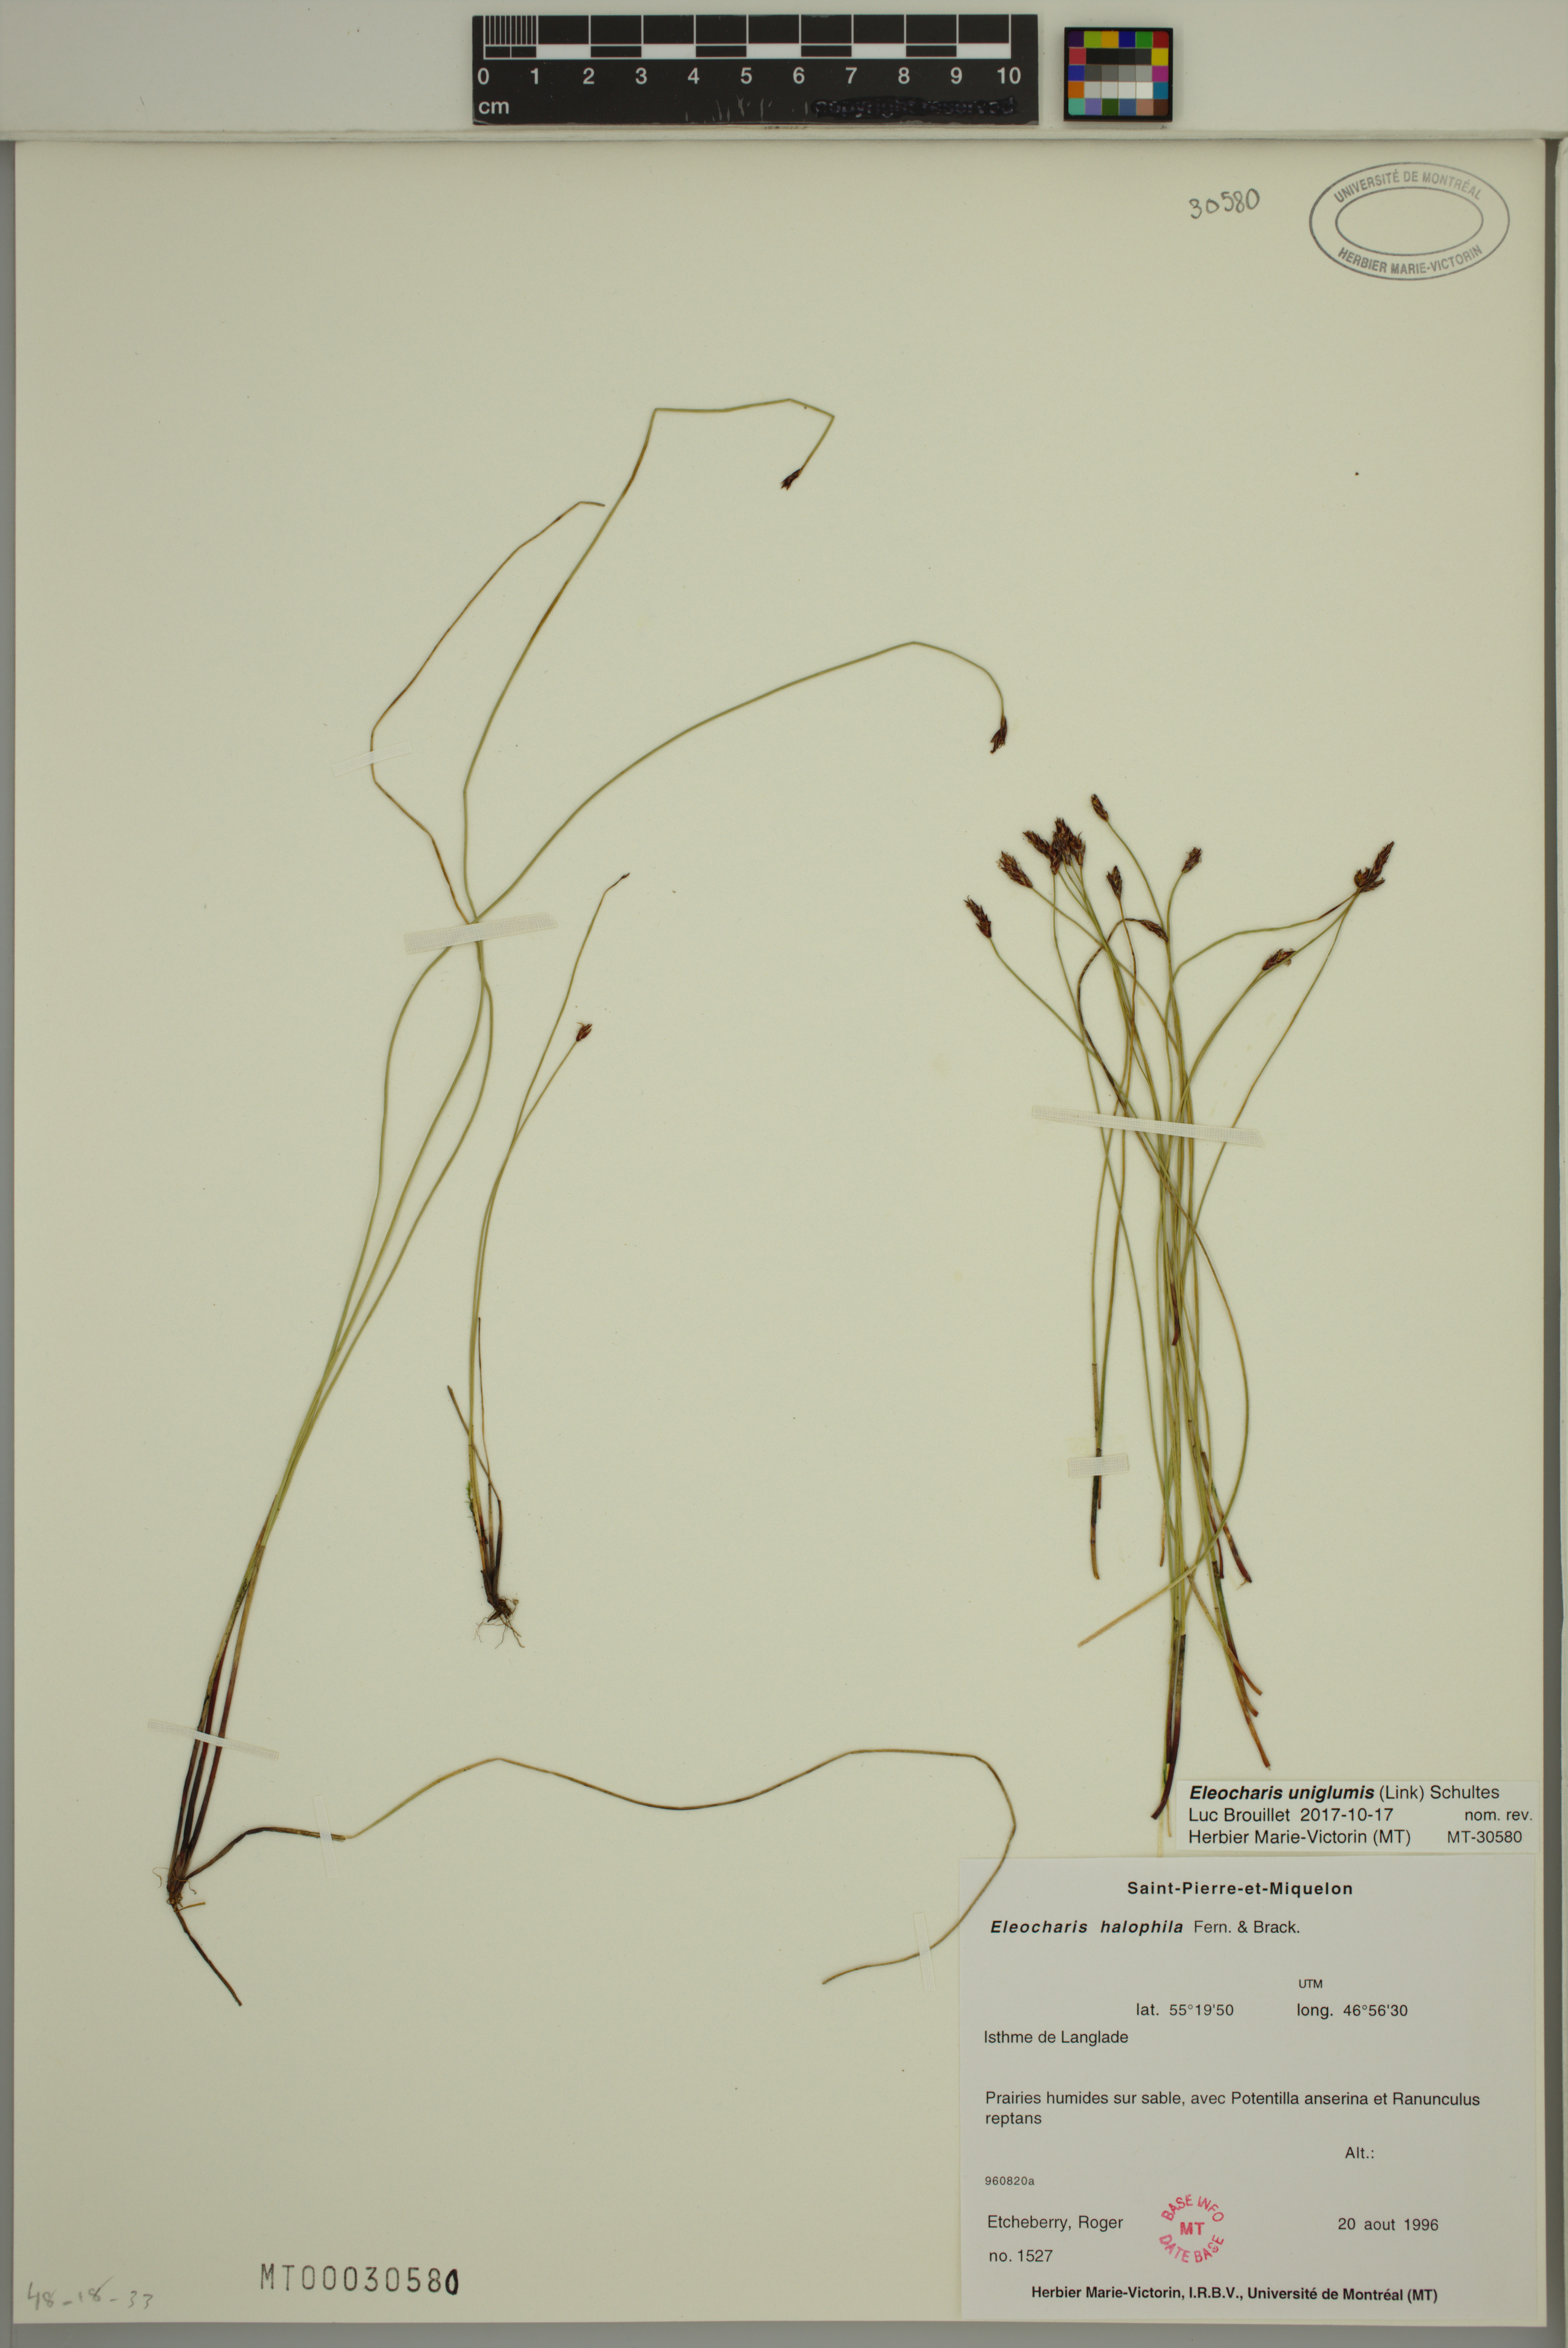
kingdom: Plantae
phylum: Tracheophyta
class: Liliopsida
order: Poales
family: Cyperaceae
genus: Eleocharis
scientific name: Eleocharis uniglumis
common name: Slender spike-rush
